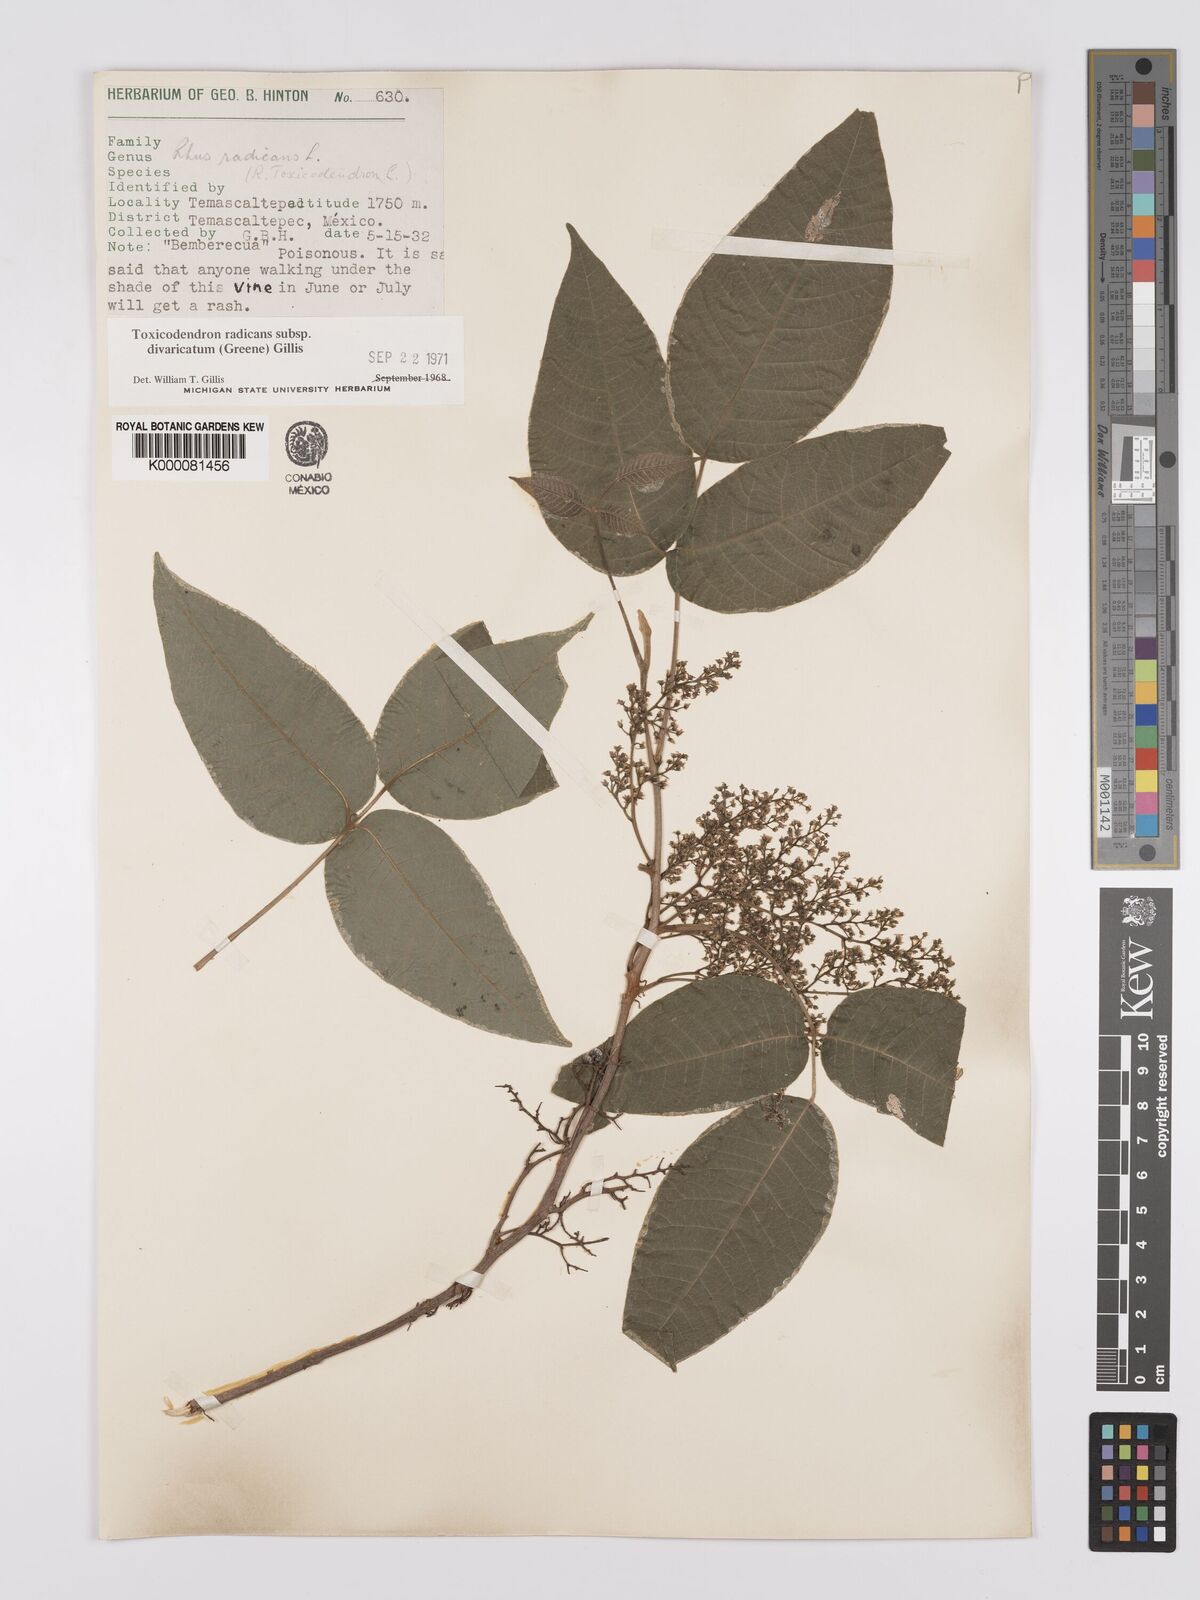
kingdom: Plantae
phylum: Tracheophyta
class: Magnoliopsida
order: Sapindales
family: Anacardiaceae
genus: Toxicodendron
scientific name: Toxicodendron radicans
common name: Poison ivy
